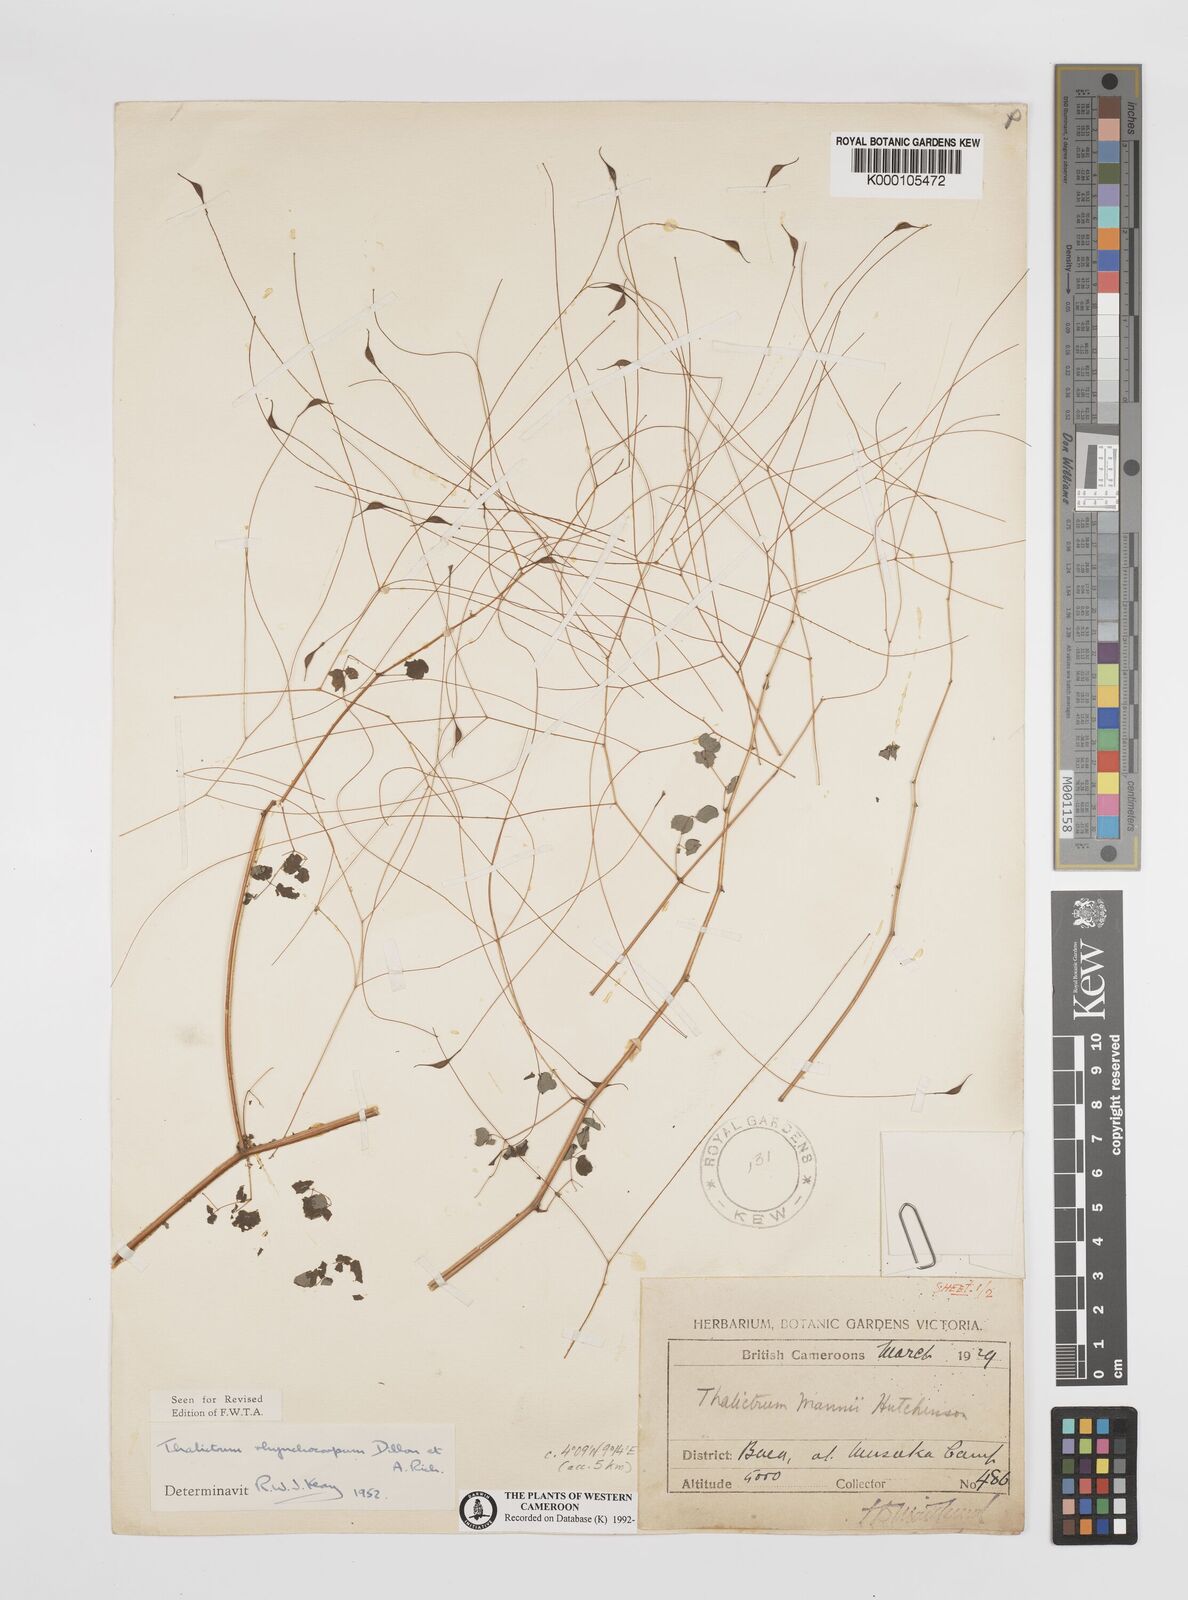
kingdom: Plantae
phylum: Tracheophyta
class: Magnoliopsida
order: Ranunculales
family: Ranunculaceae
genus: Thalictrum
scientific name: Thalictrum
